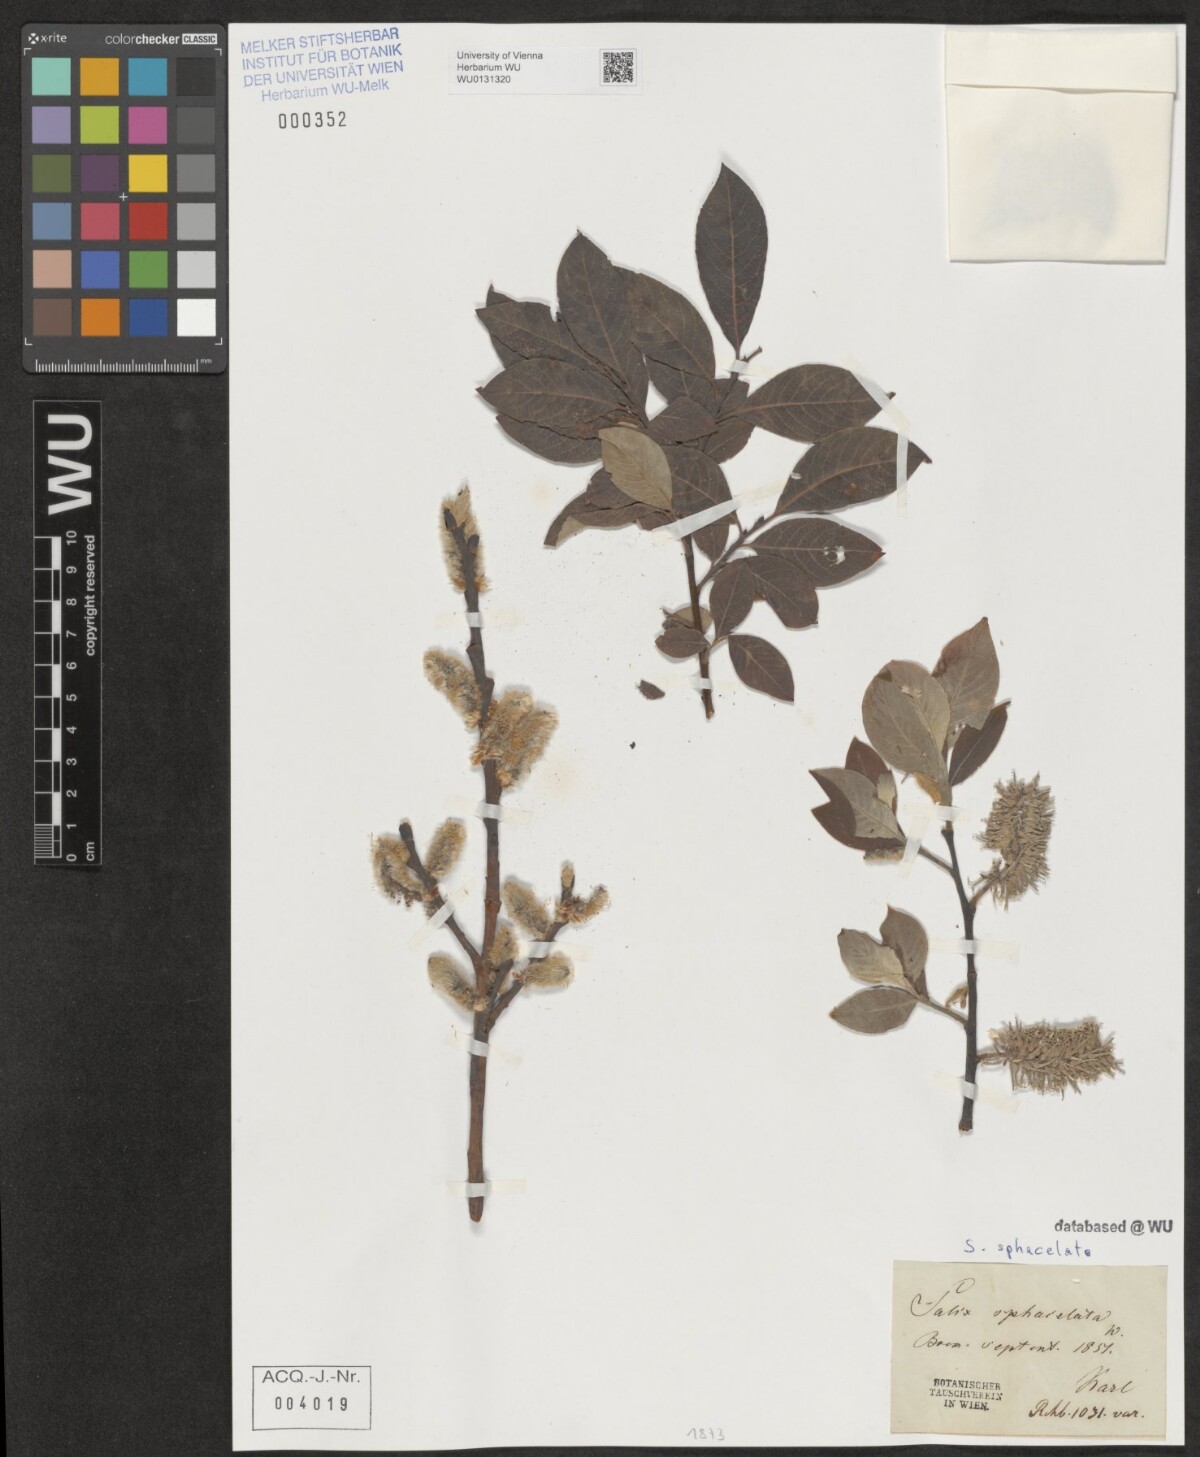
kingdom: Plantae
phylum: Tracheophyta
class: Magnoliopsida
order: Malpighiales
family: Salicaceae
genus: Salix
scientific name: Salix caprea
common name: Goat willow
